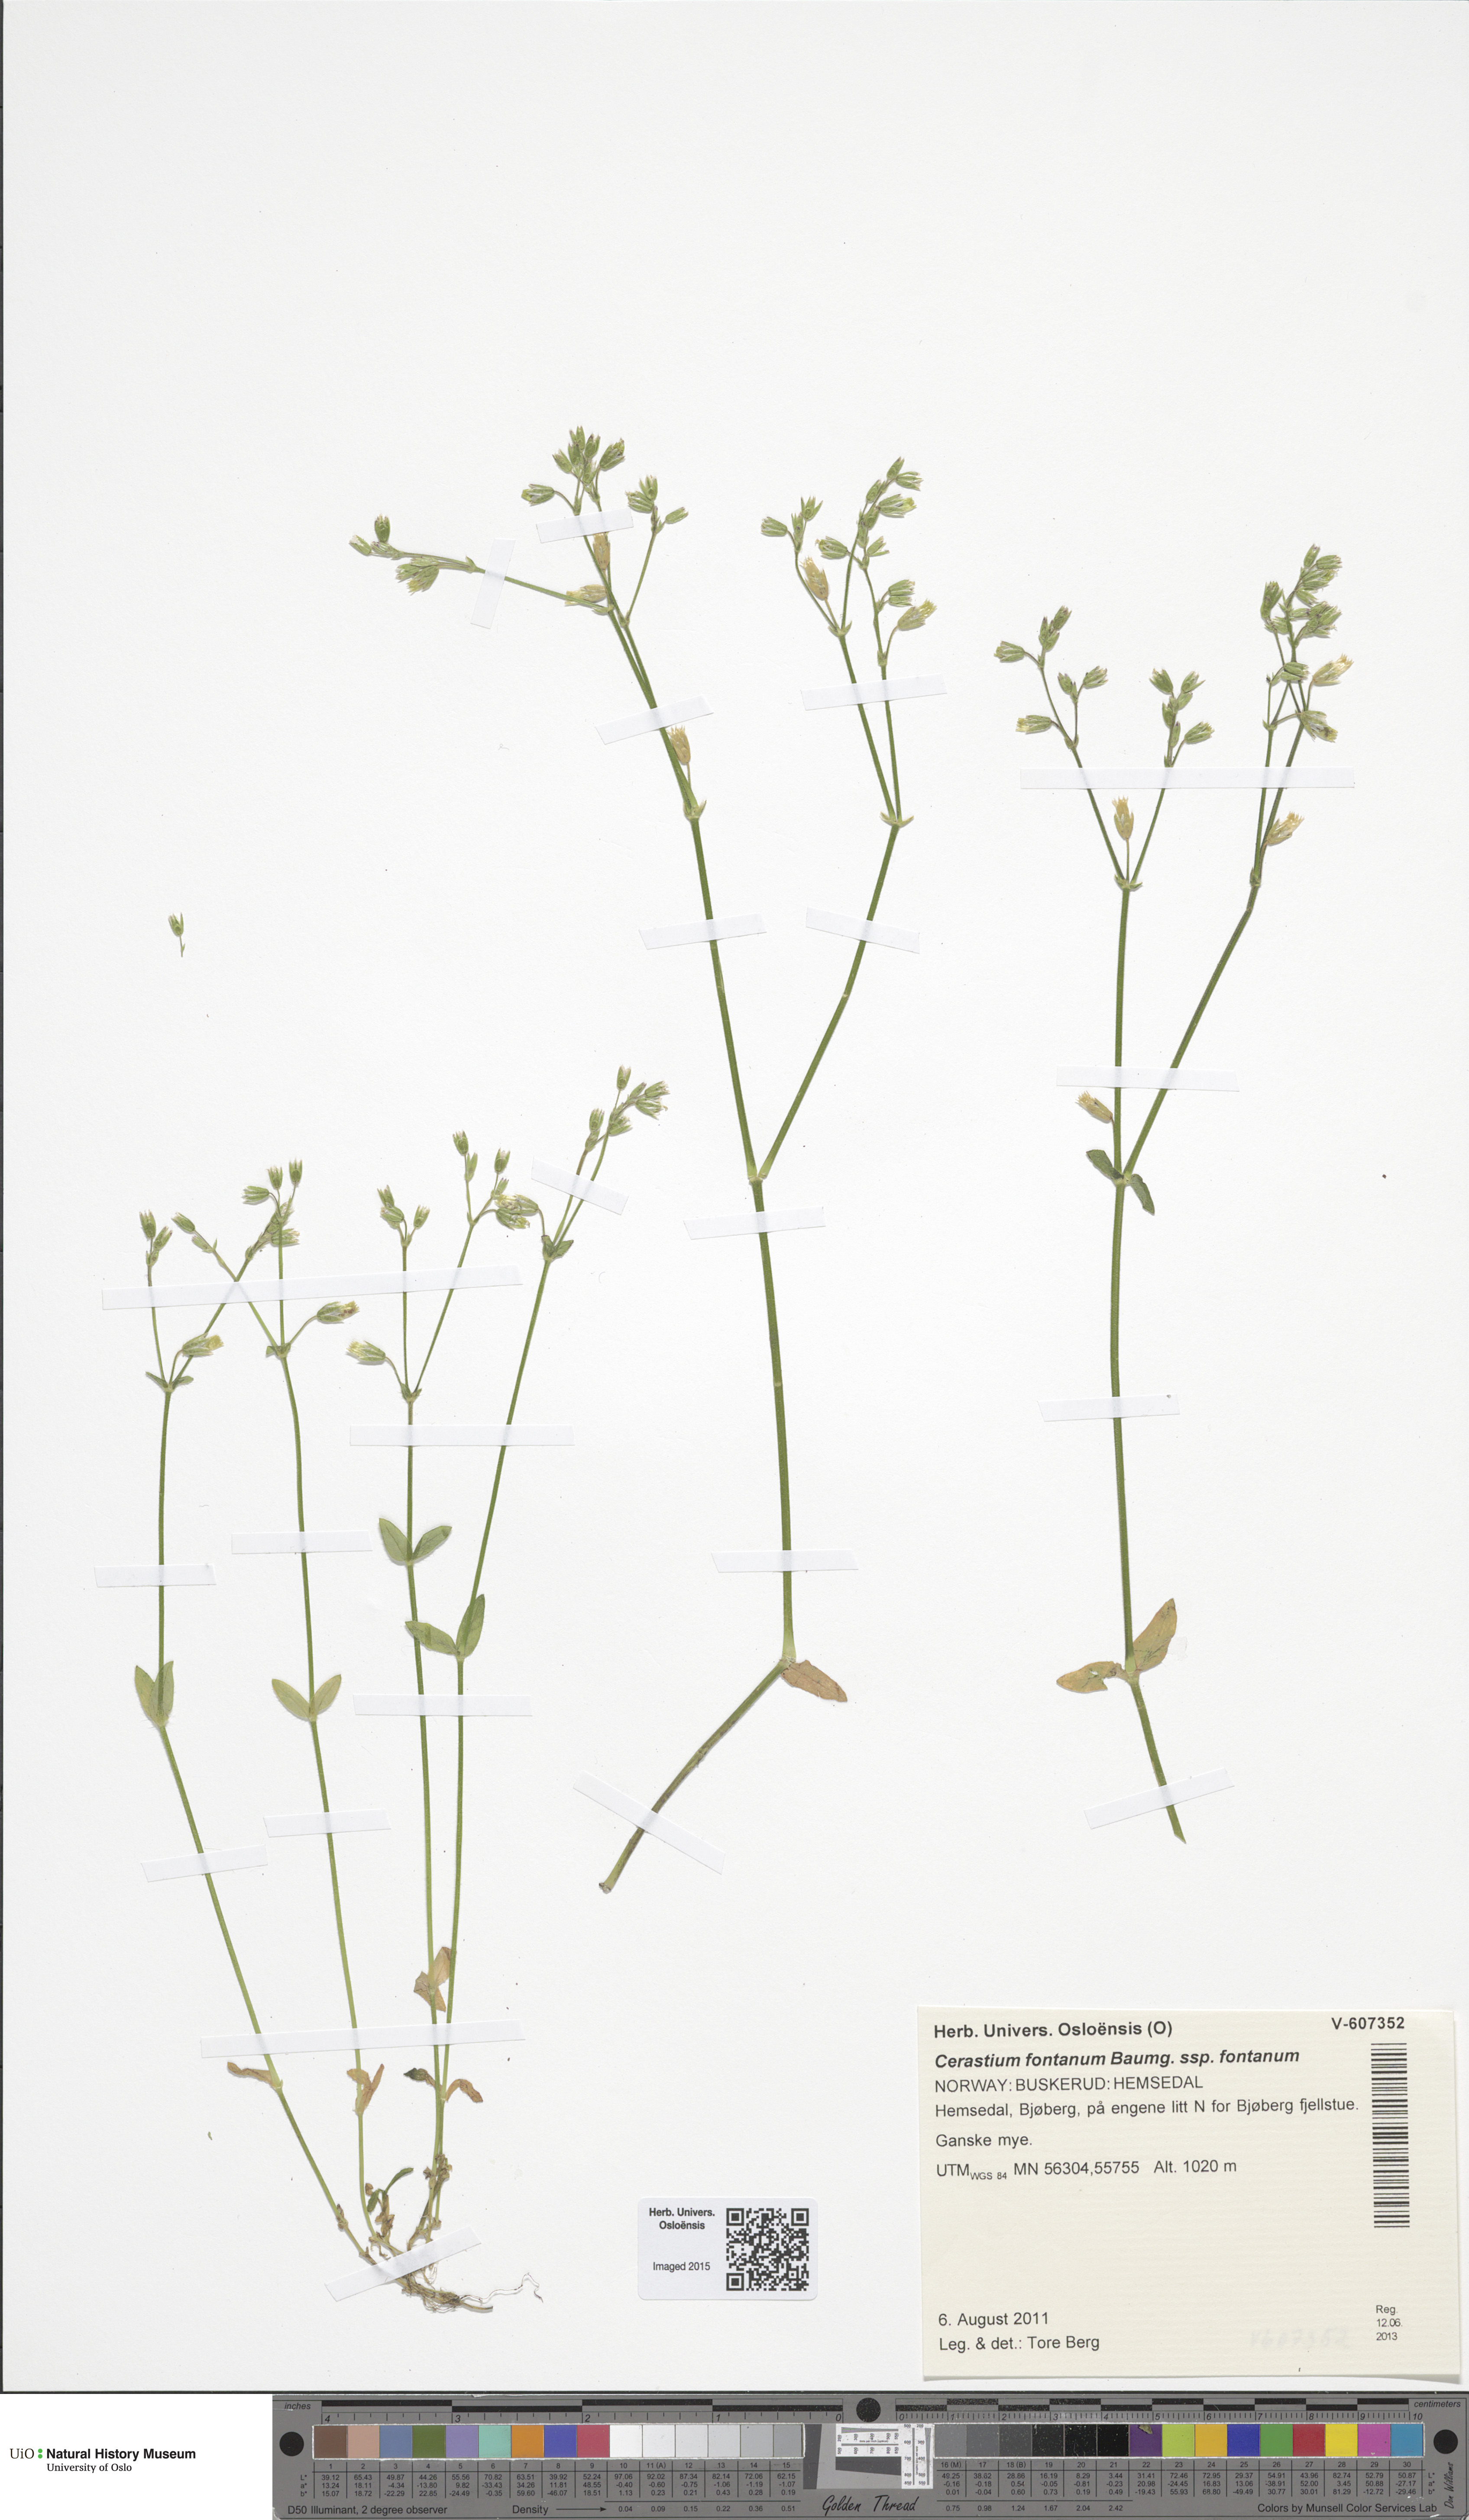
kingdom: Plantae
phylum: Tracheophyta
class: Magnoliopsida
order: Caryophyllales
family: Caryophyllaceae
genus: Cerastium
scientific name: Cerastium fontanum
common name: Common mouse-ear
